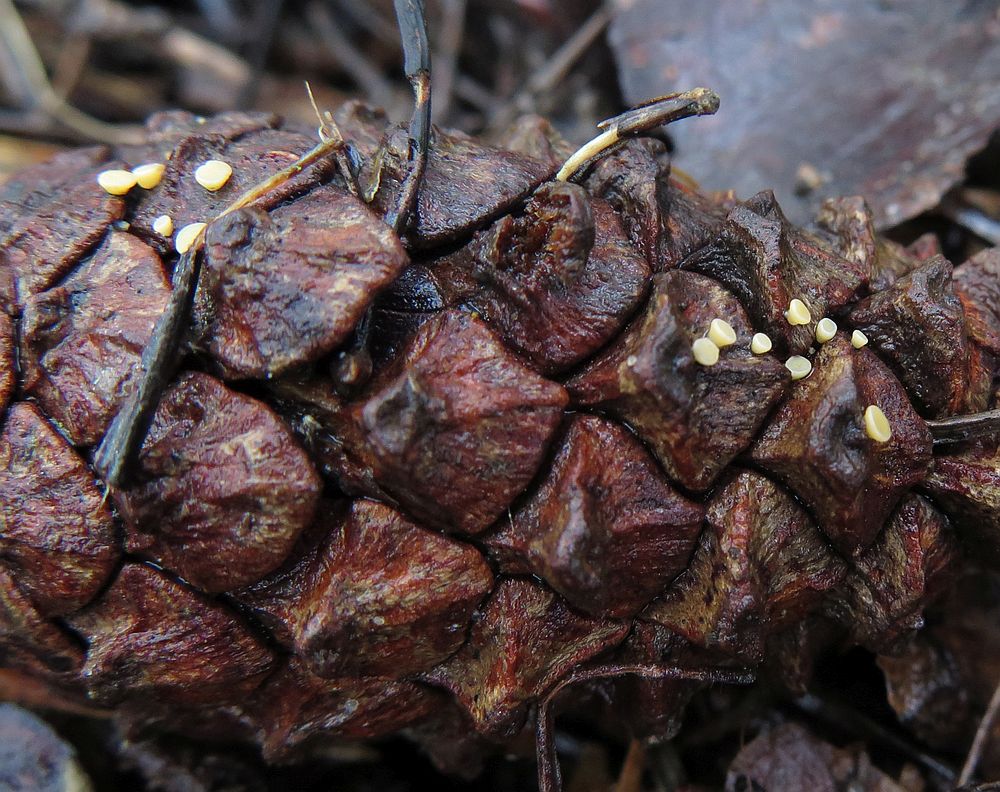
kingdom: Fungi
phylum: Ascomycota
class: Leotiomycetes
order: Helotiales
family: Helotiaceae
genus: Hymenoscyphus
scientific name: Hymenoscyphus lutescens
